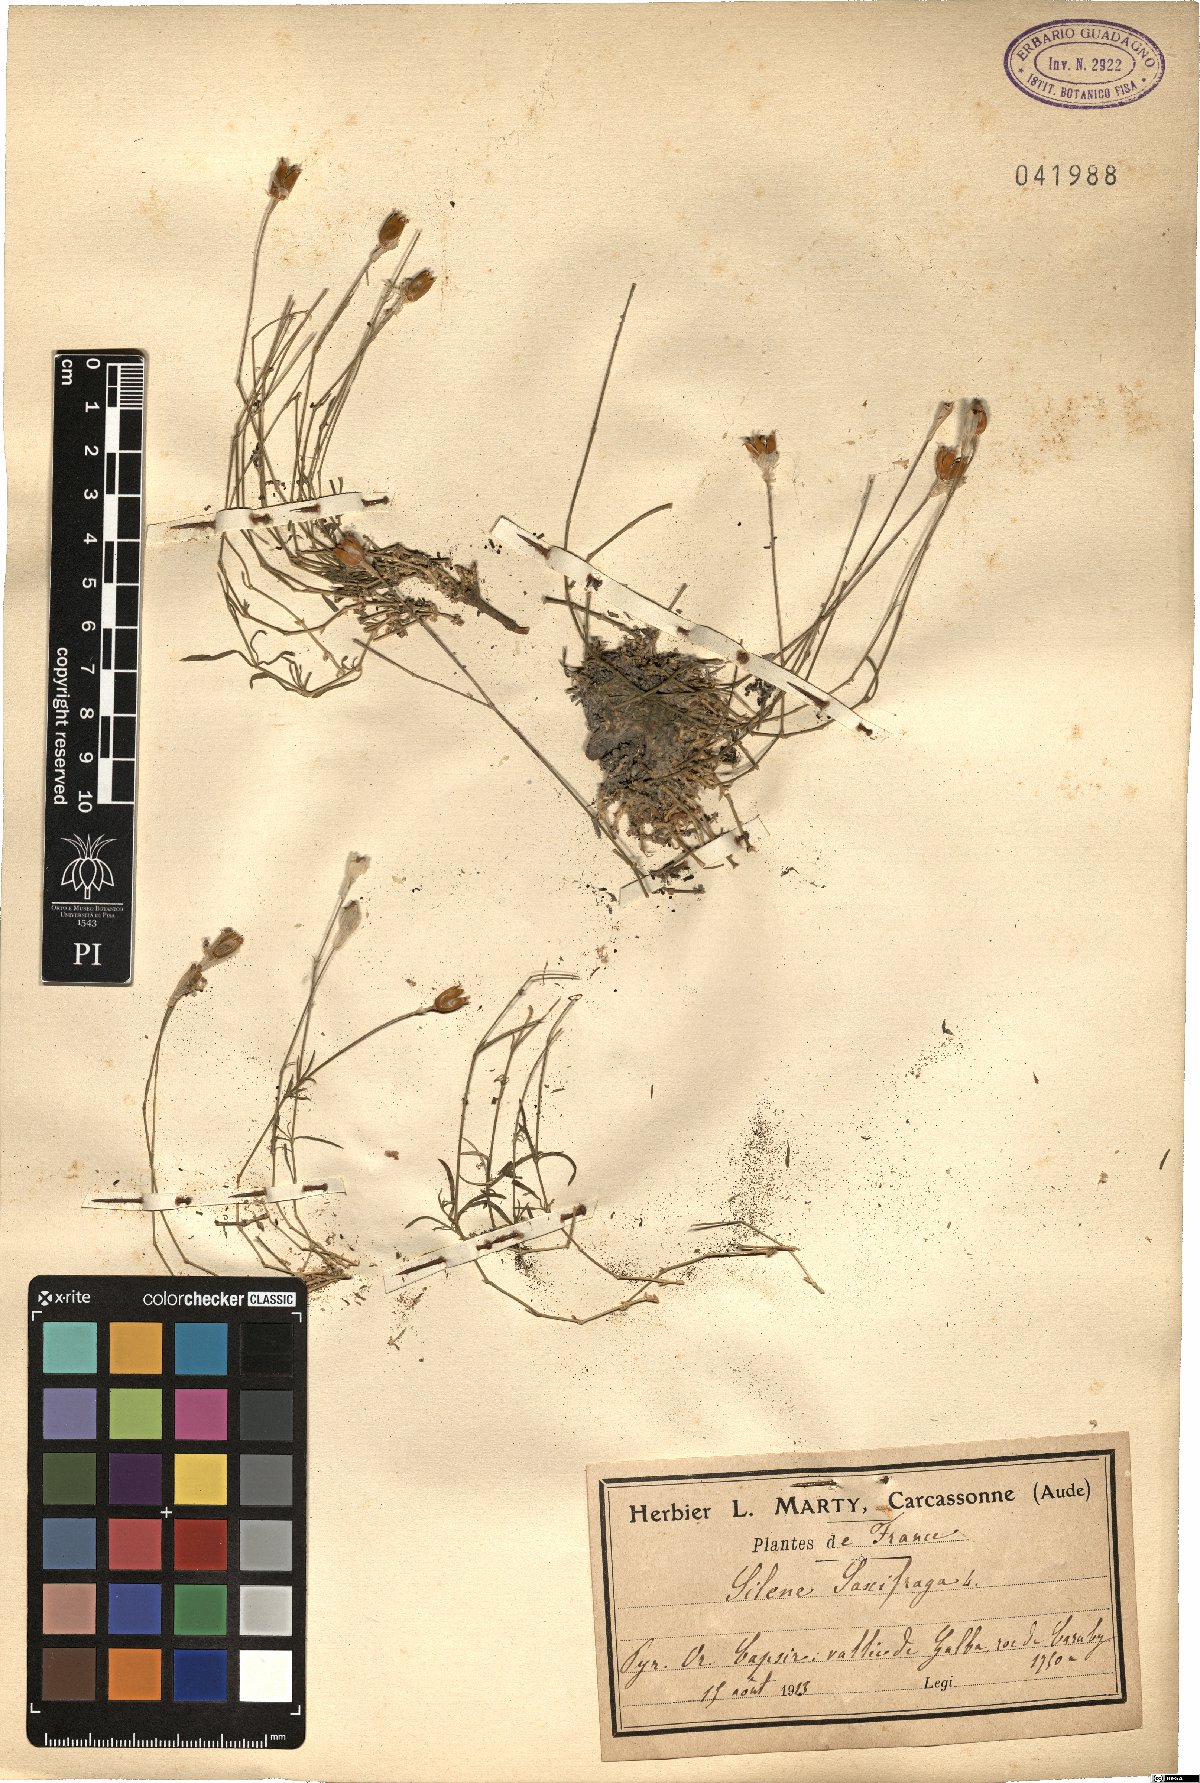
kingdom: Plantae
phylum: Tracheophyta
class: Magnoliopsida
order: Caryophyllales
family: Caryophyllaceae
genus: Silene
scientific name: Silene saxifraga
